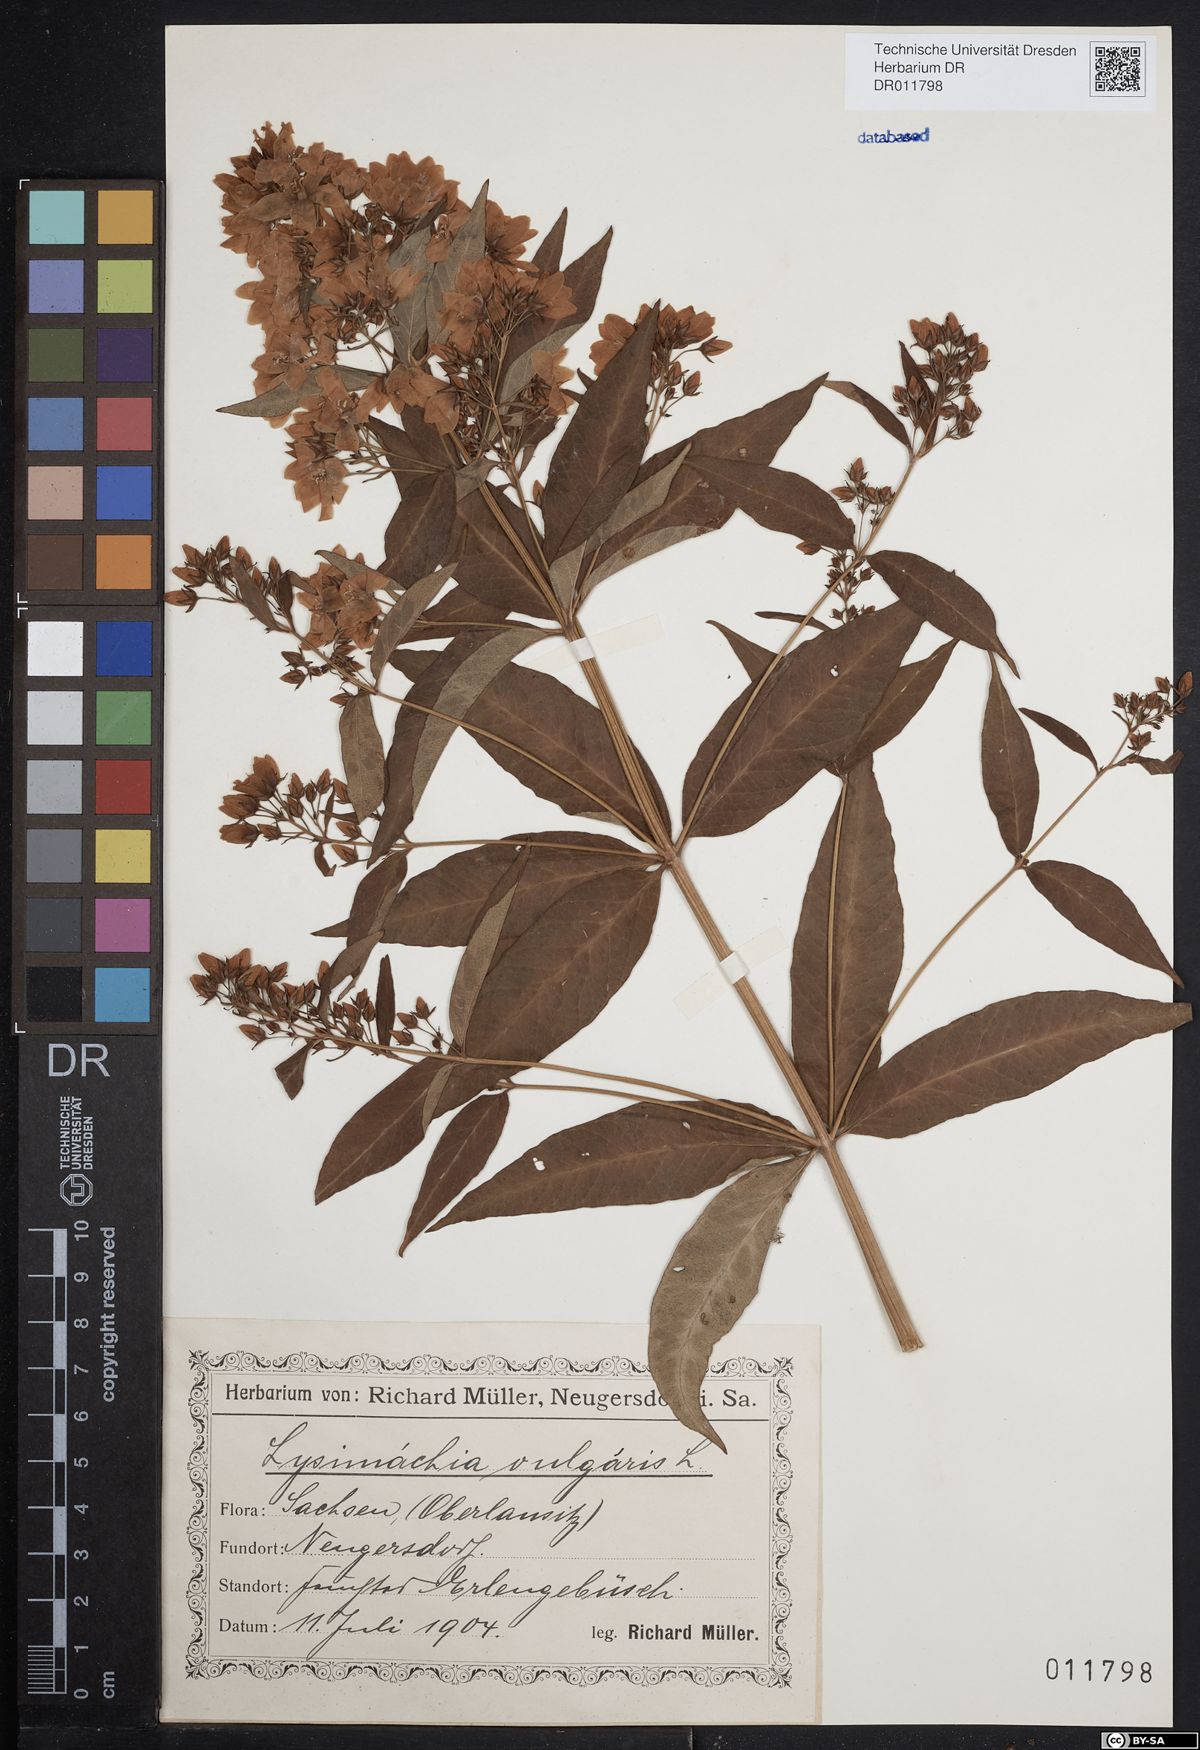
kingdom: Plantae
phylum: Tracheophyta
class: Magnoliopsida
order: Ericales
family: Primulaceae
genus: Lysimachia
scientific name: Lysimachia vulgaris
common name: Yellow loosestrife
